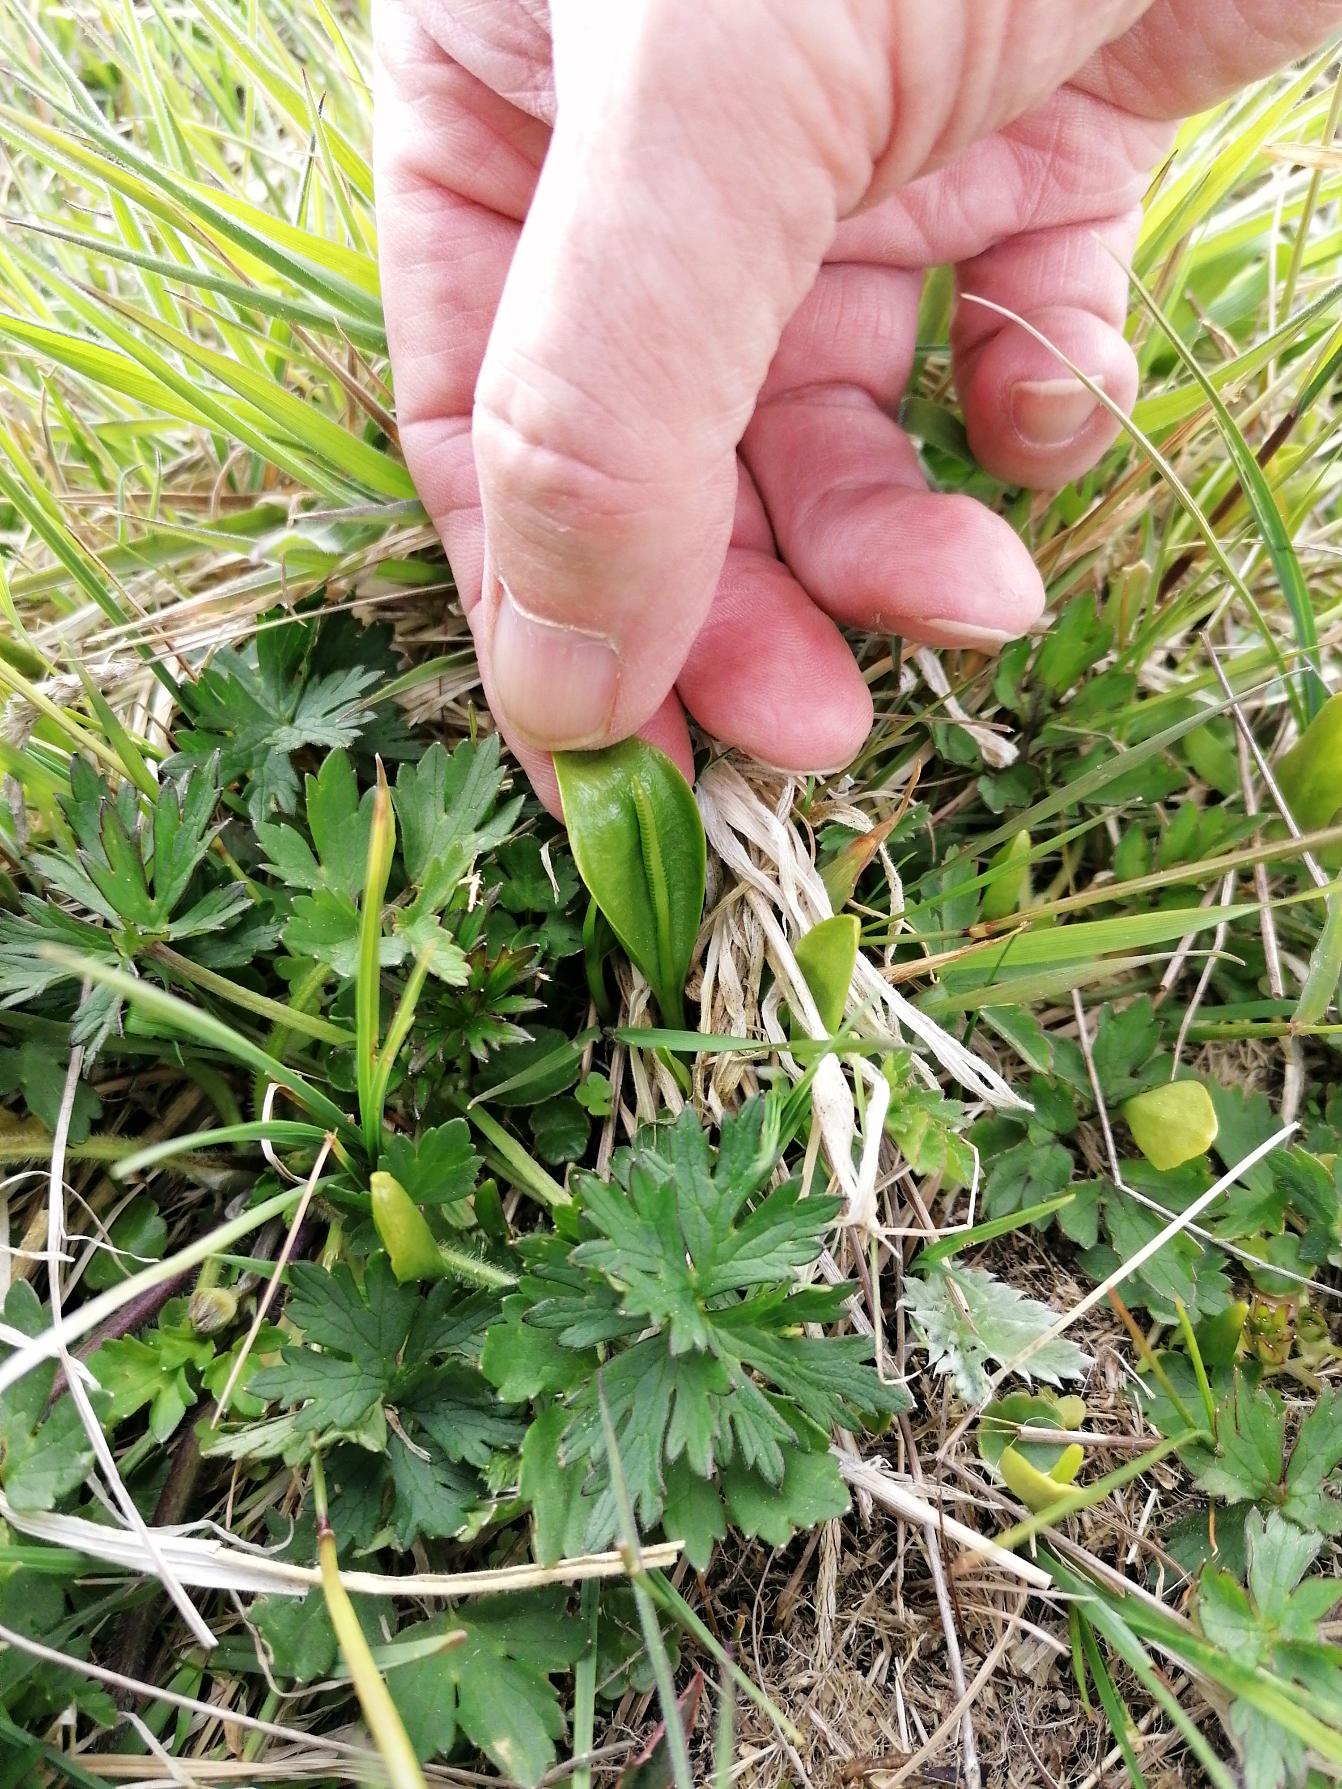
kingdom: Plantae
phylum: Tracheophyta
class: Polypodiopsida
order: Ophioglossales
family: Ophioglossaceae
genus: Ophioglossum
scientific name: Ophioglossum vulgatum
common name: Slangetunge
